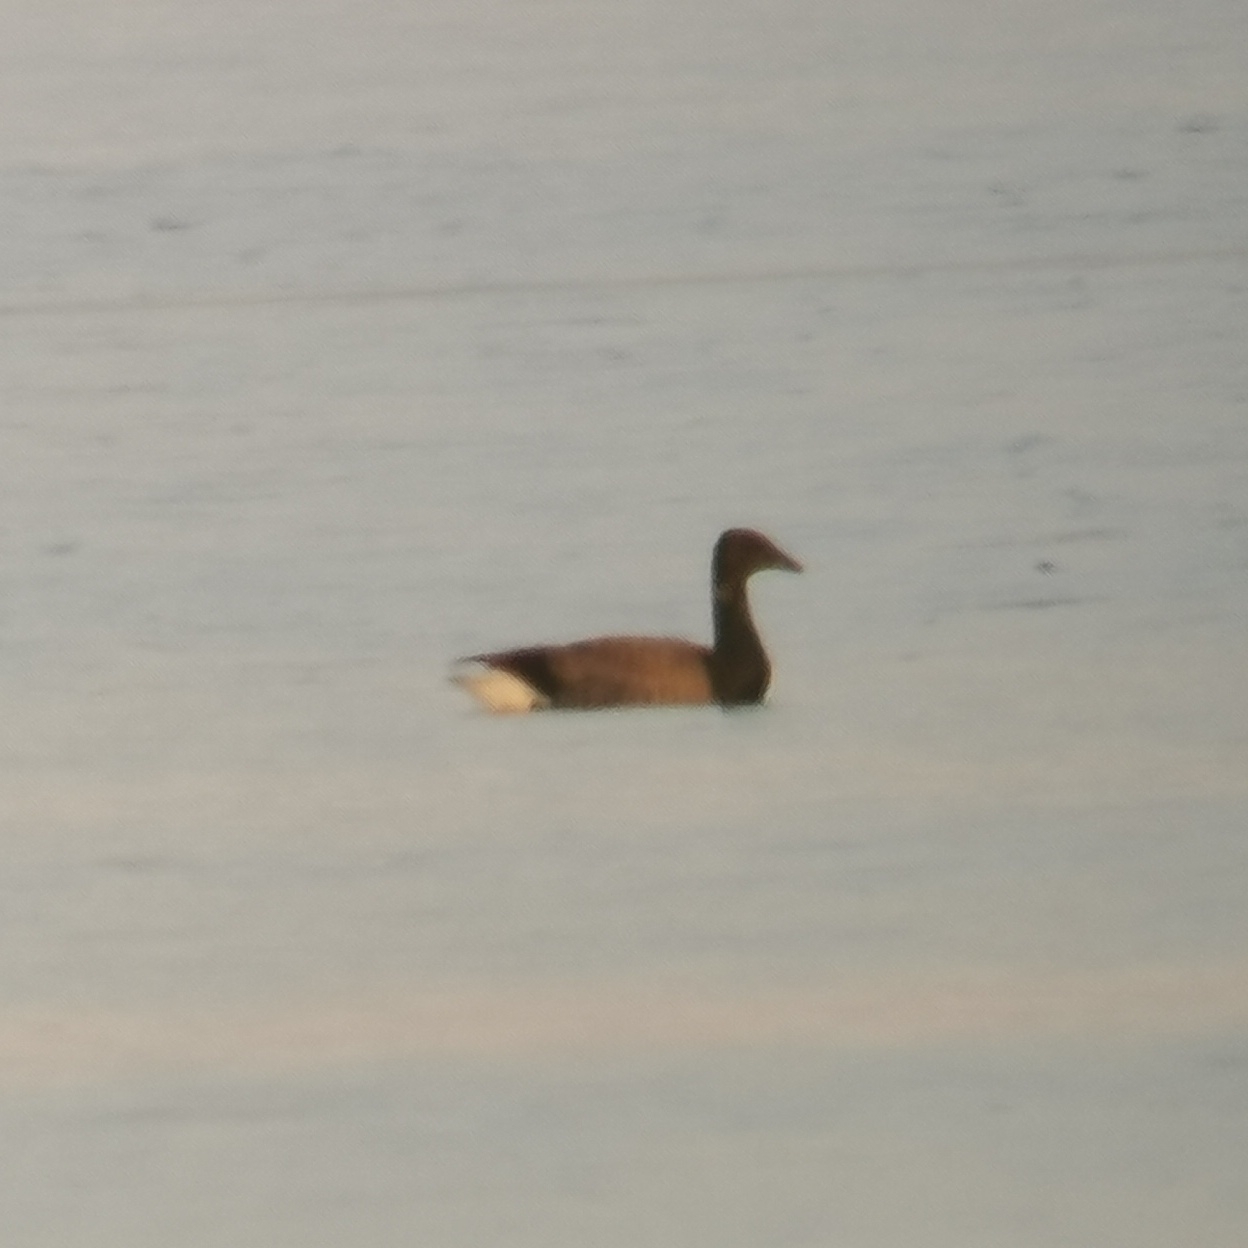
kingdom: Animalia
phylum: Chordata
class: Aves
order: Anseriformes
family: Anatidae
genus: Branta
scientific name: Branta bernicla
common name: Knortegås
